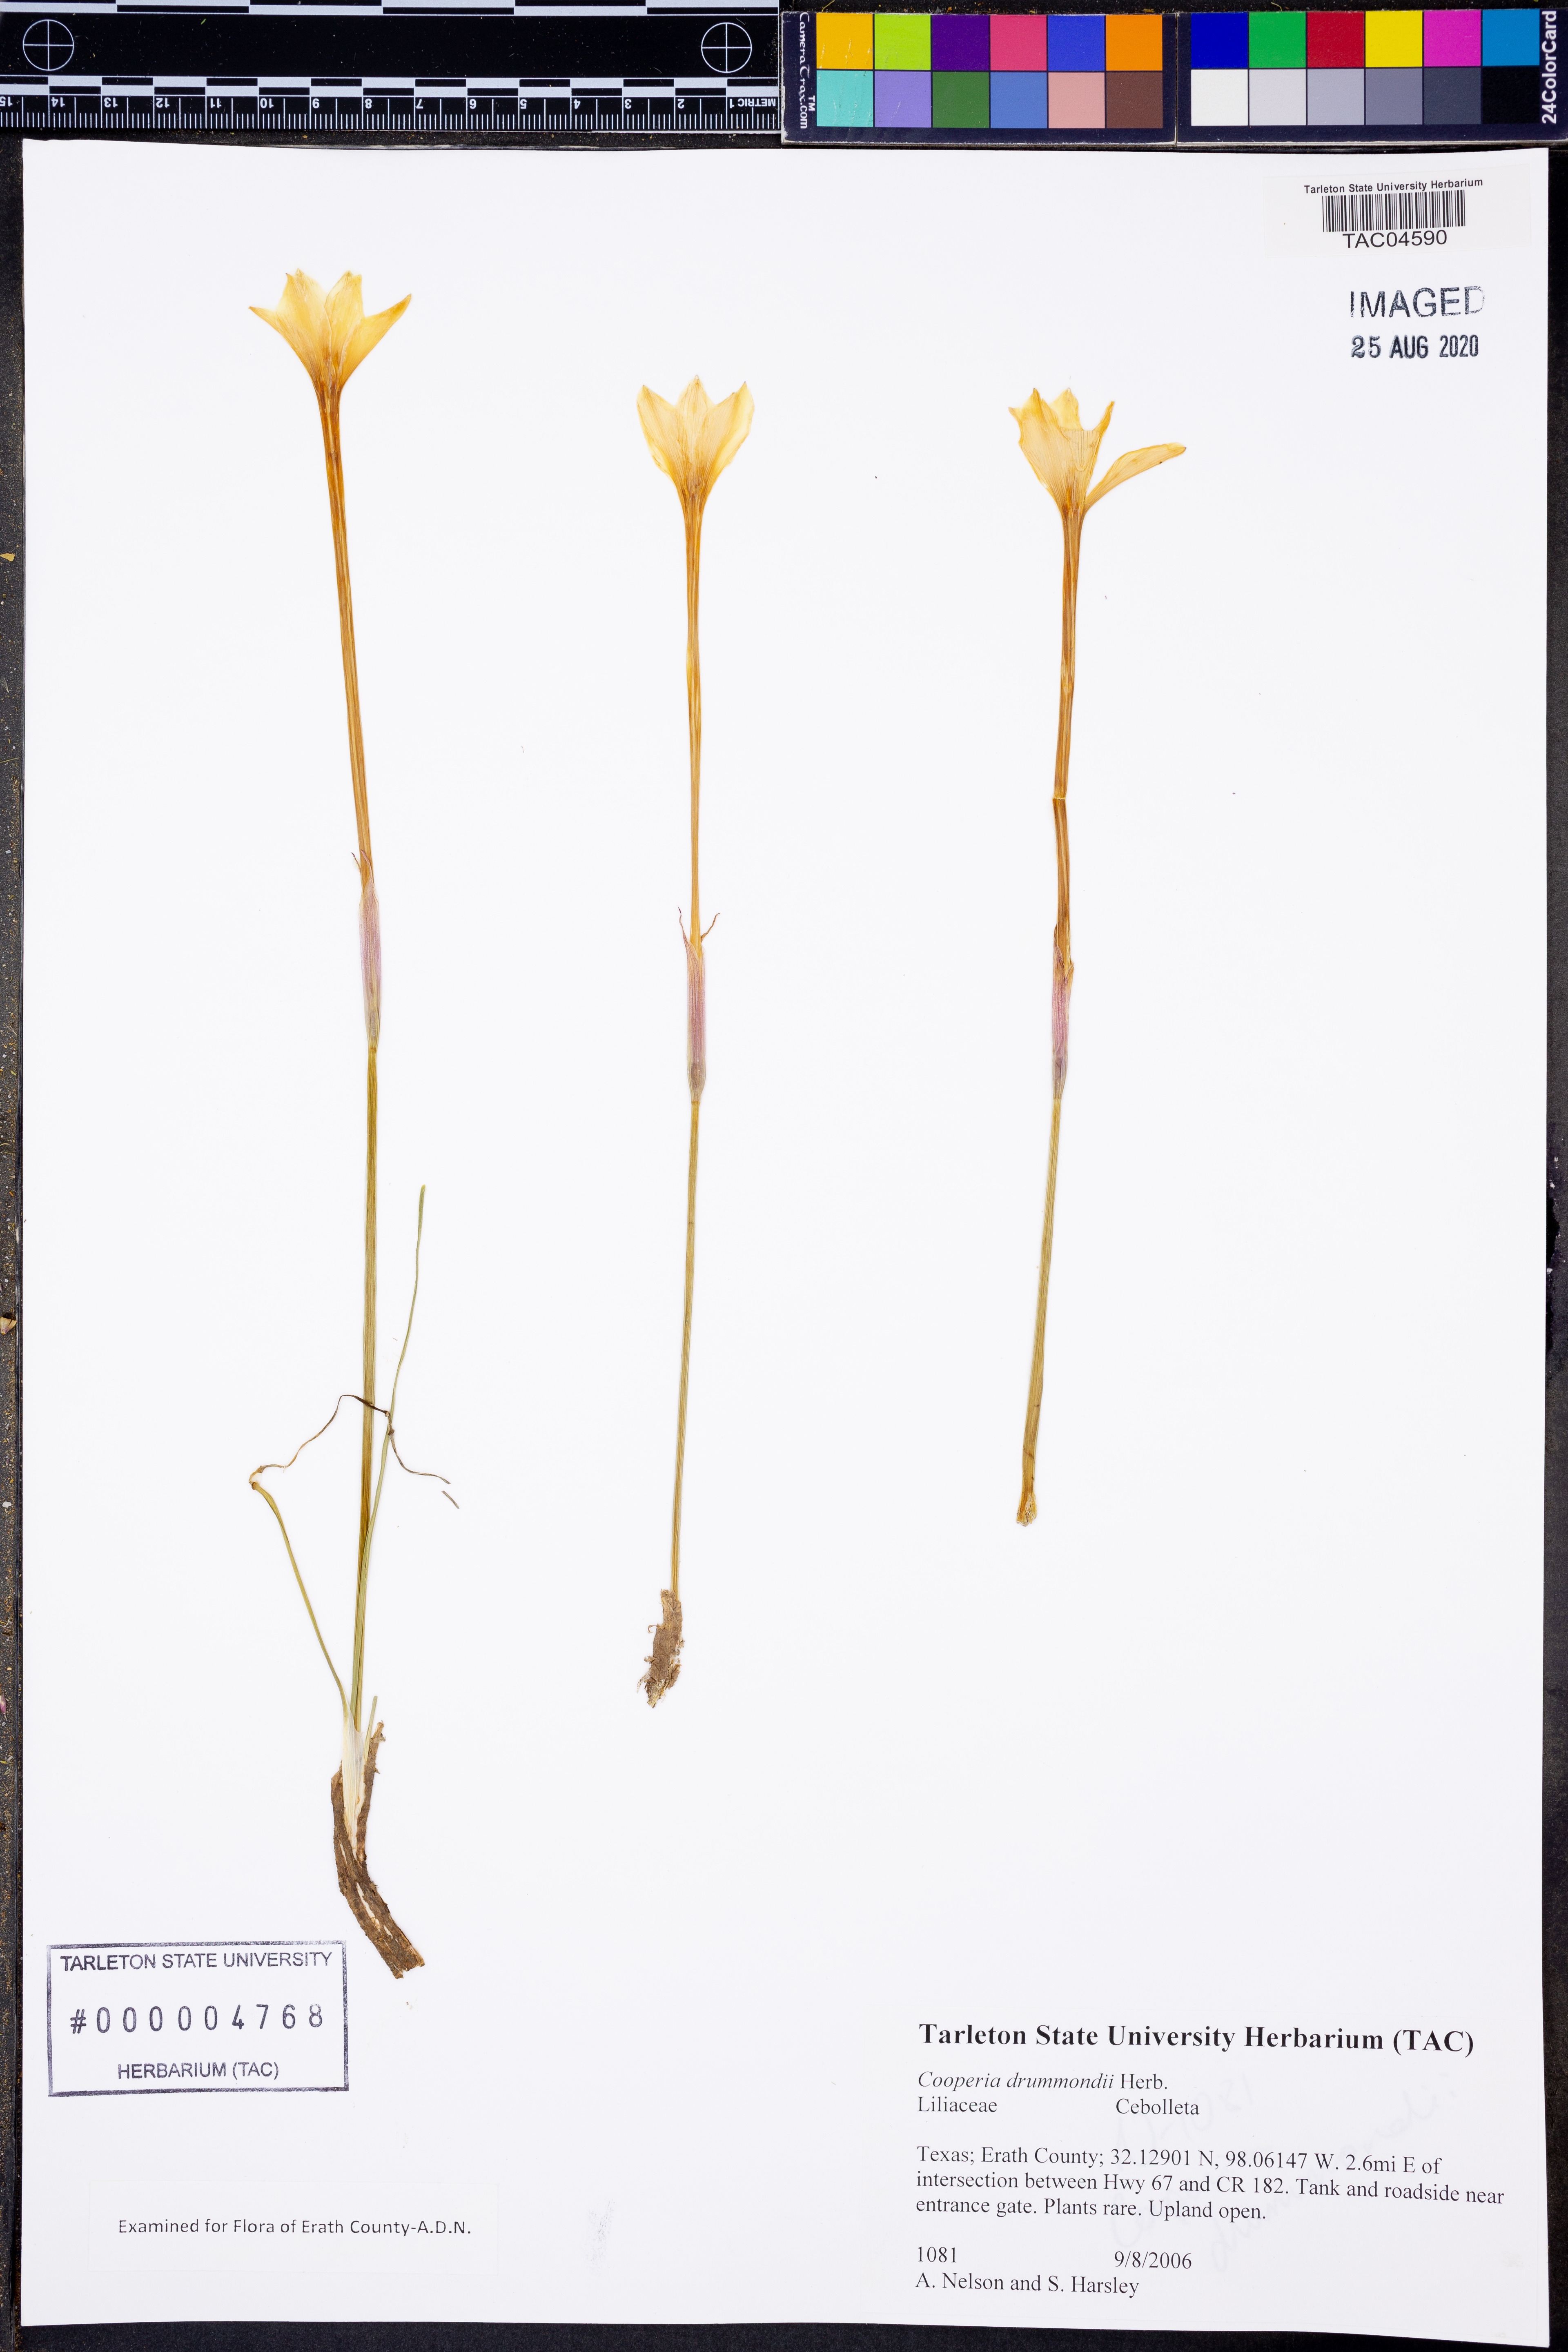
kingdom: Plantae
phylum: Tracheophyta
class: Liliopsida
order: Asparagales
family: Amaryllidaceae
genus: Zephyranthes
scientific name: Zephyranthes chlorosolen
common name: Evening rain-lily
